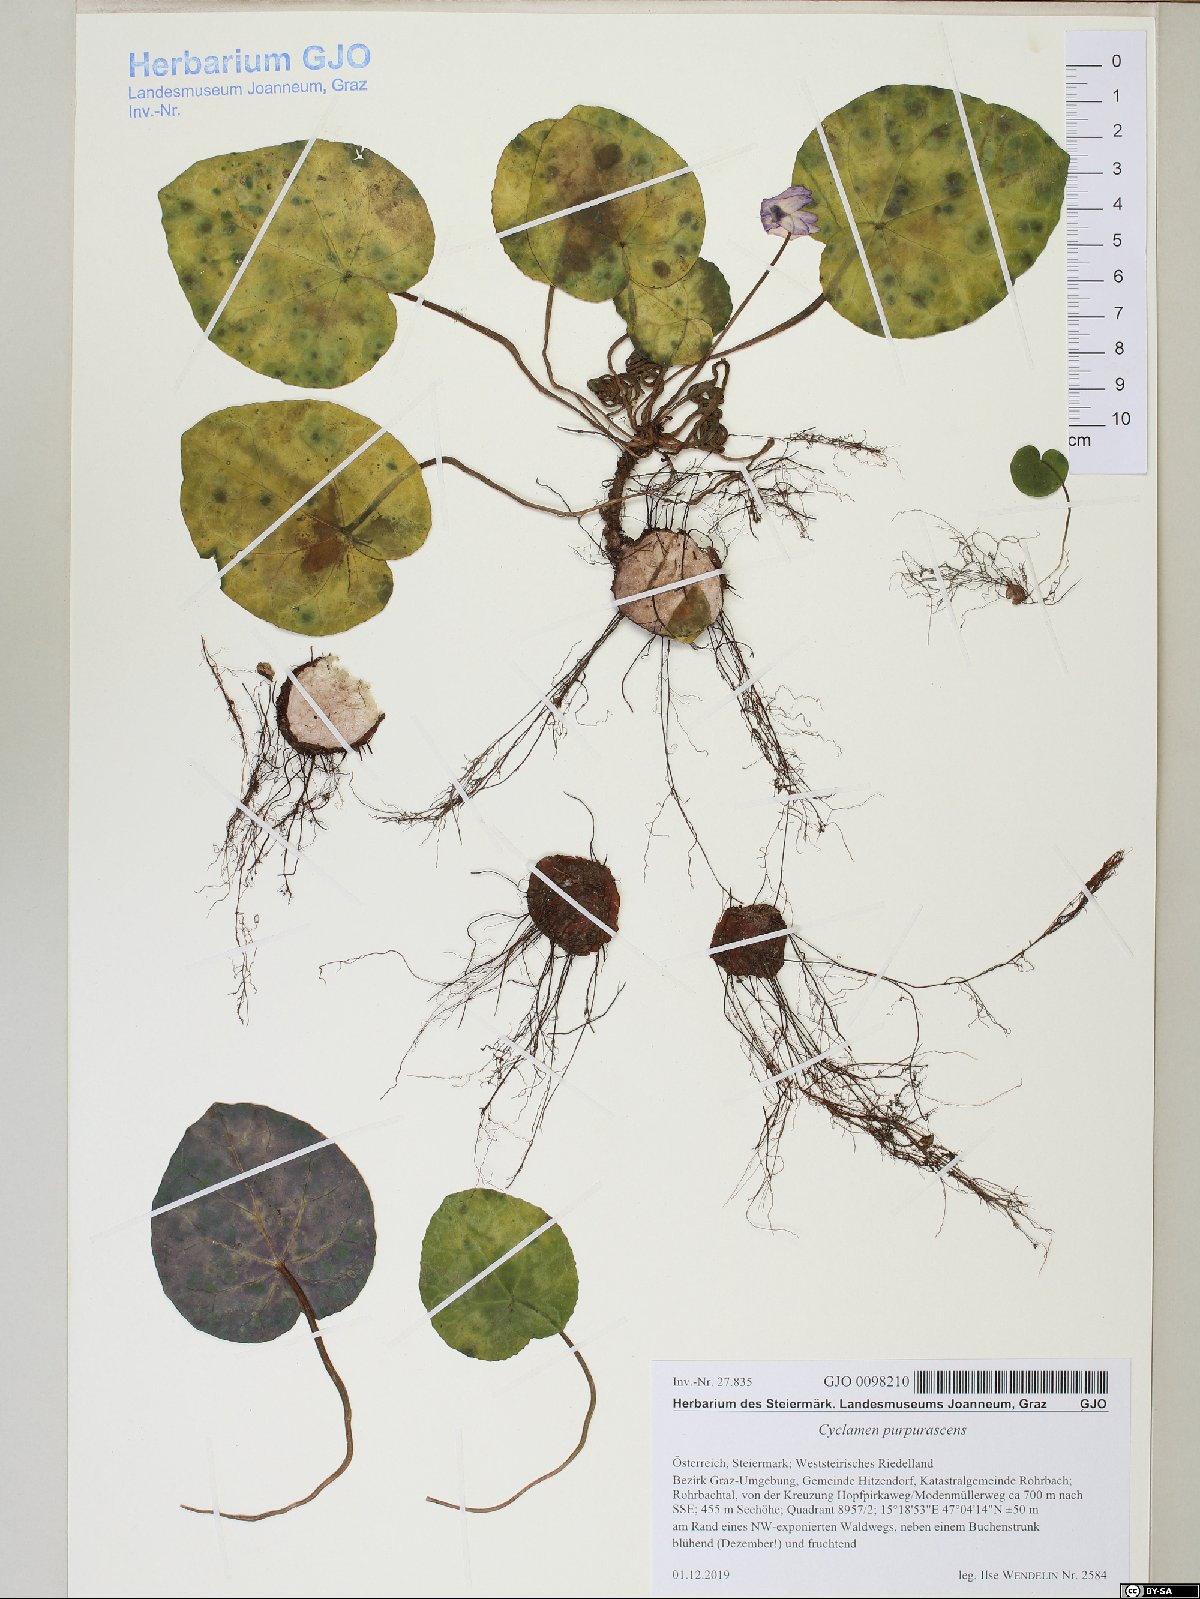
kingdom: Plantae
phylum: Tracheophyta
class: Magnoliopsida
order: Ericales
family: Primulaceae
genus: Cyclamen
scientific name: Cyclamen purpurascens
